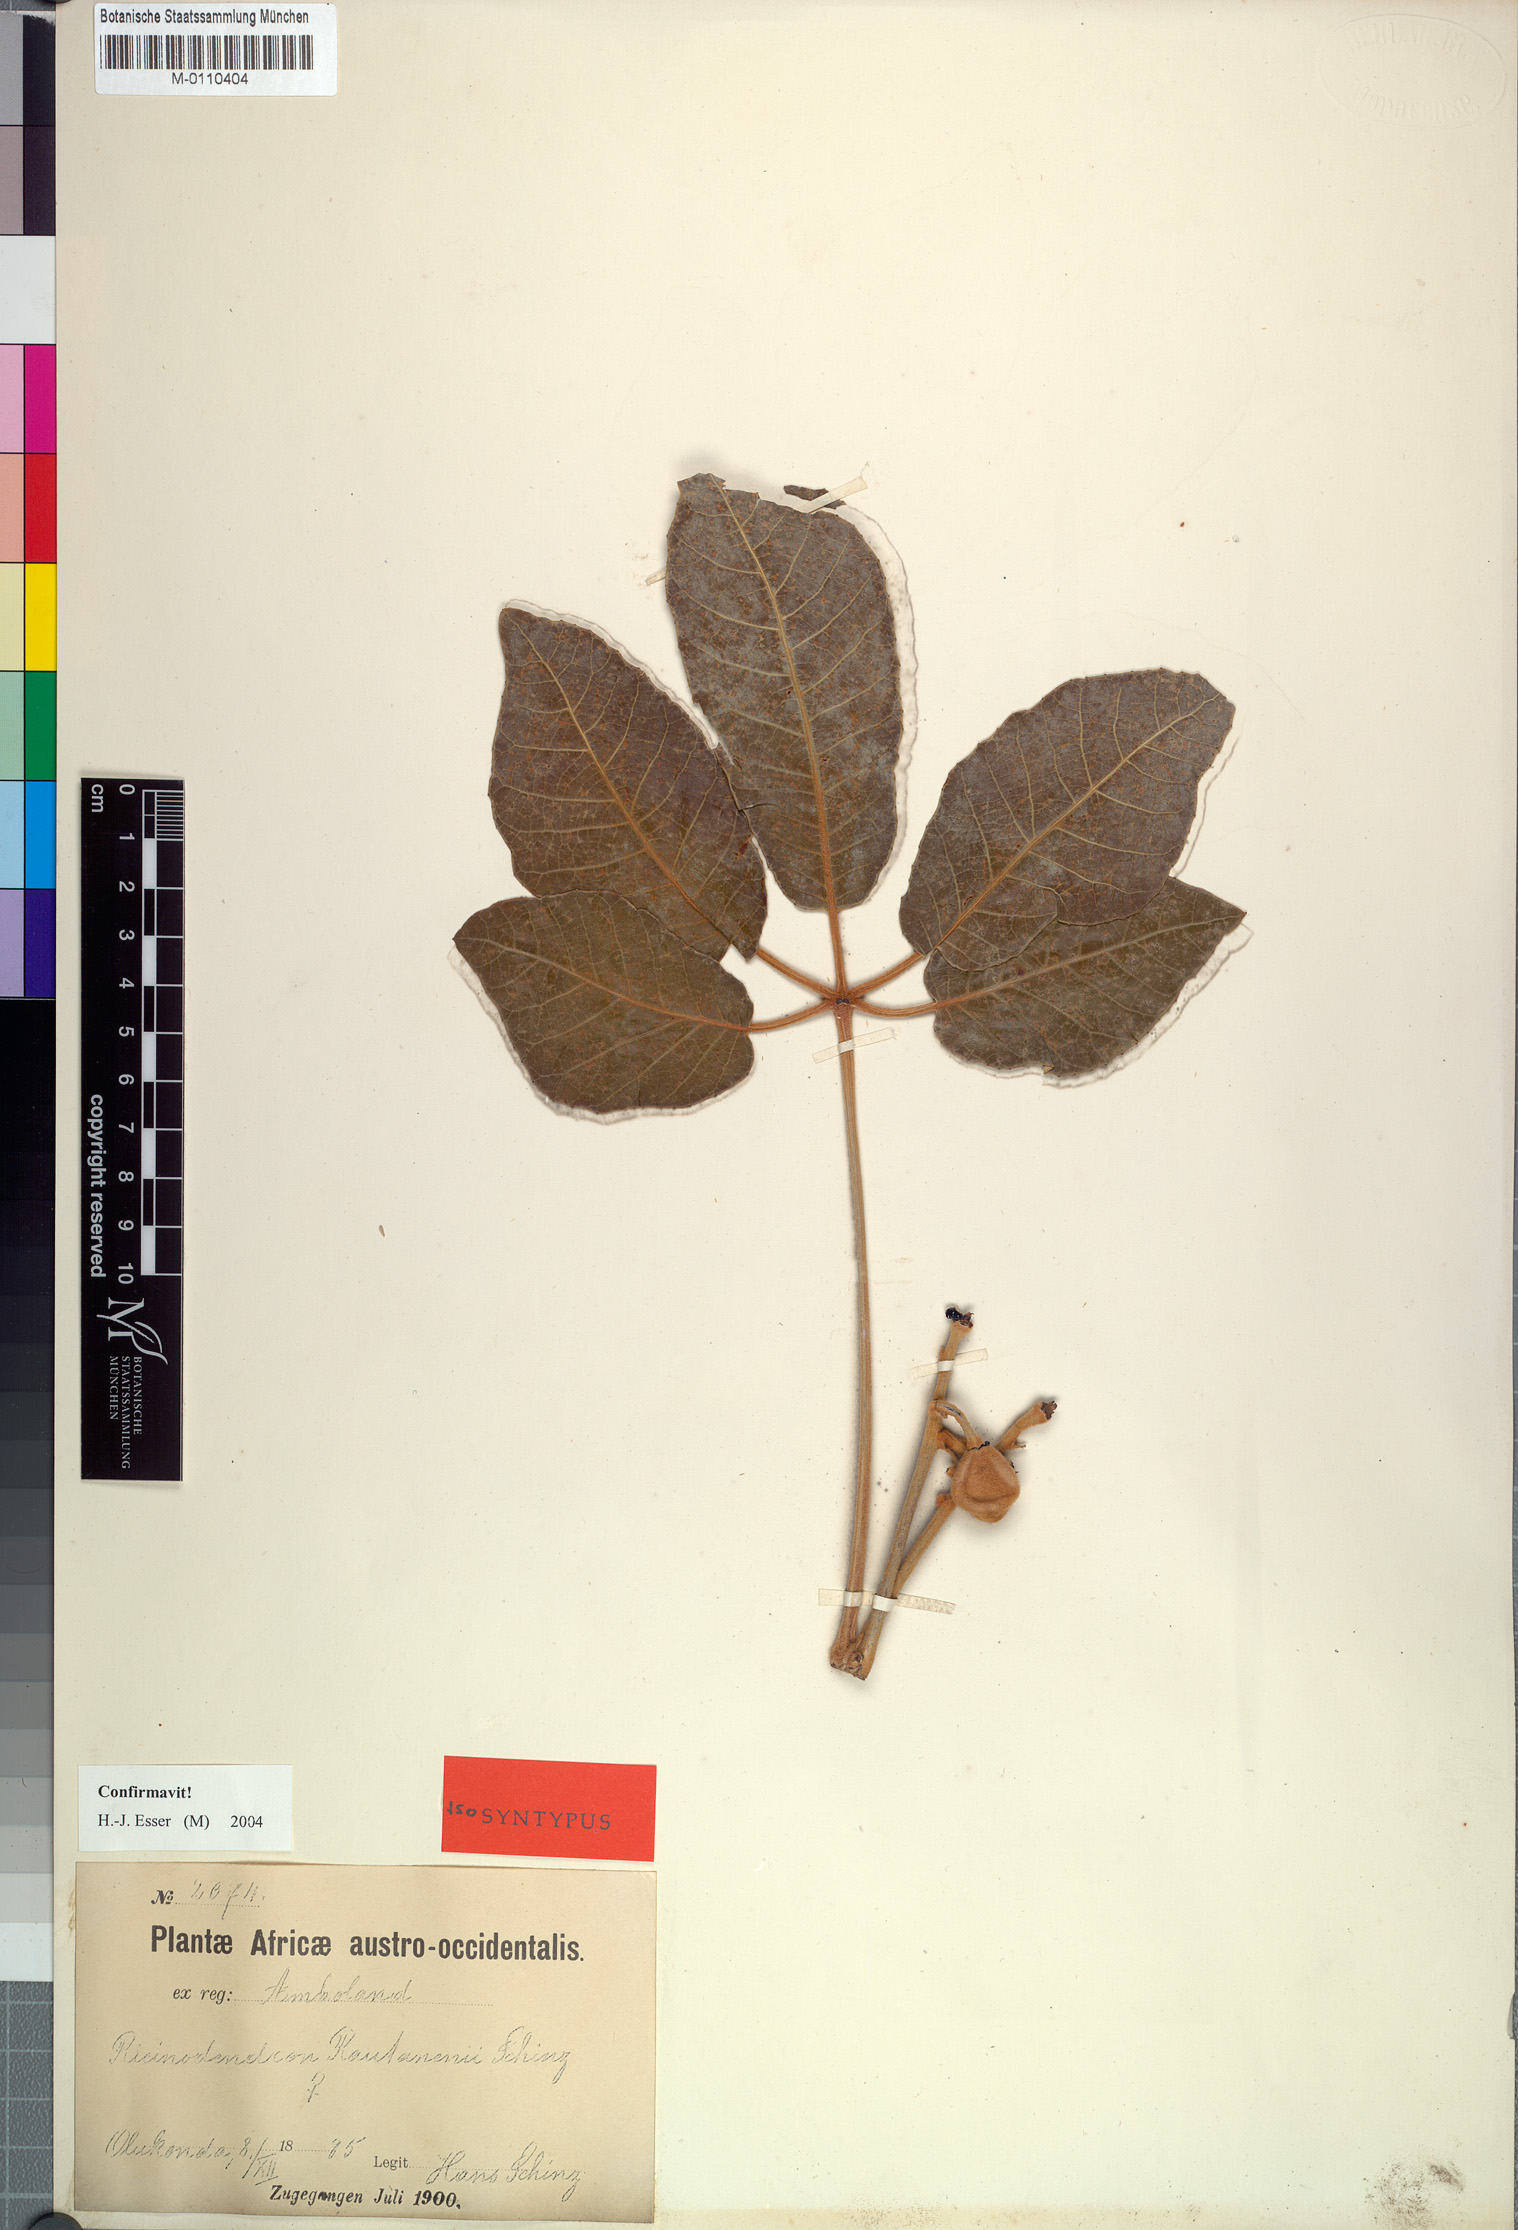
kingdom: Plantae
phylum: Tracheophyta
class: Magnoliopsida
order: Malpighiales
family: Euphorbiaceae
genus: Schinziophyton
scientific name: Schinziophyton rautanenii
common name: Manketti
